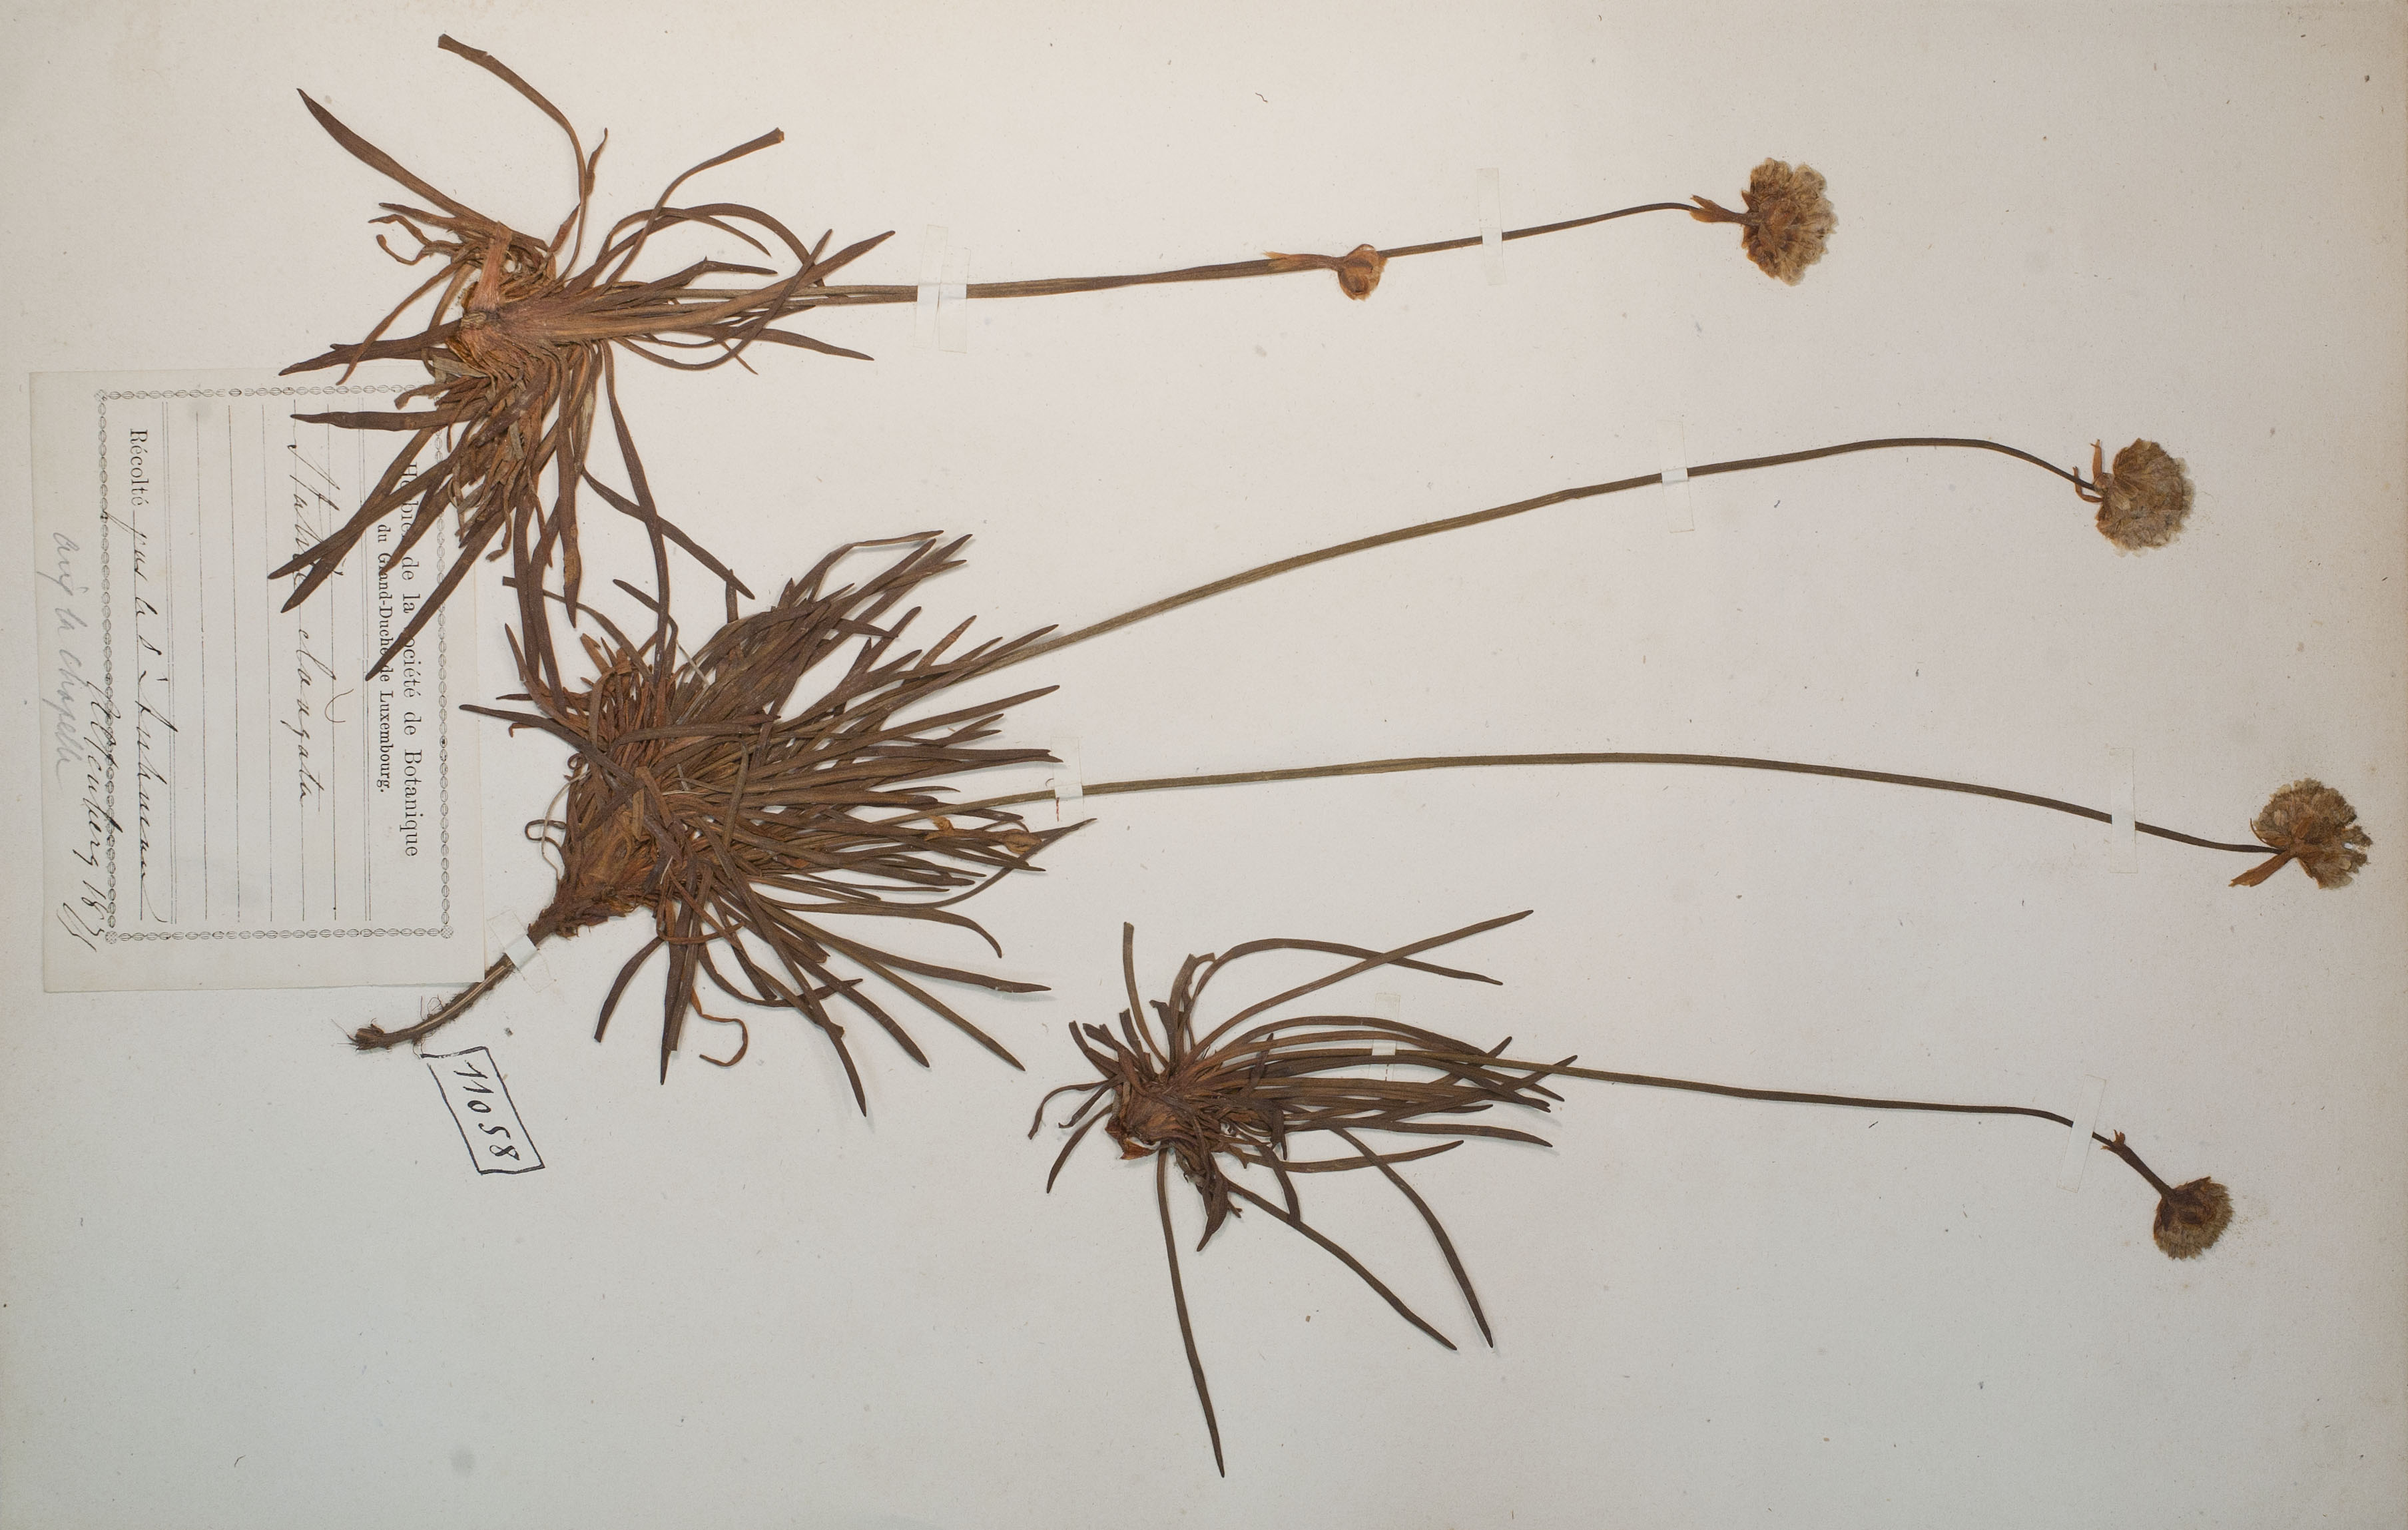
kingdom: Plantae
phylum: Tracheophyta
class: Magnoliopsida
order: Caryophyllales
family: Plumbaginaceae
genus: Armeria
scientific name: Armeria maritima
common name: Thrift
